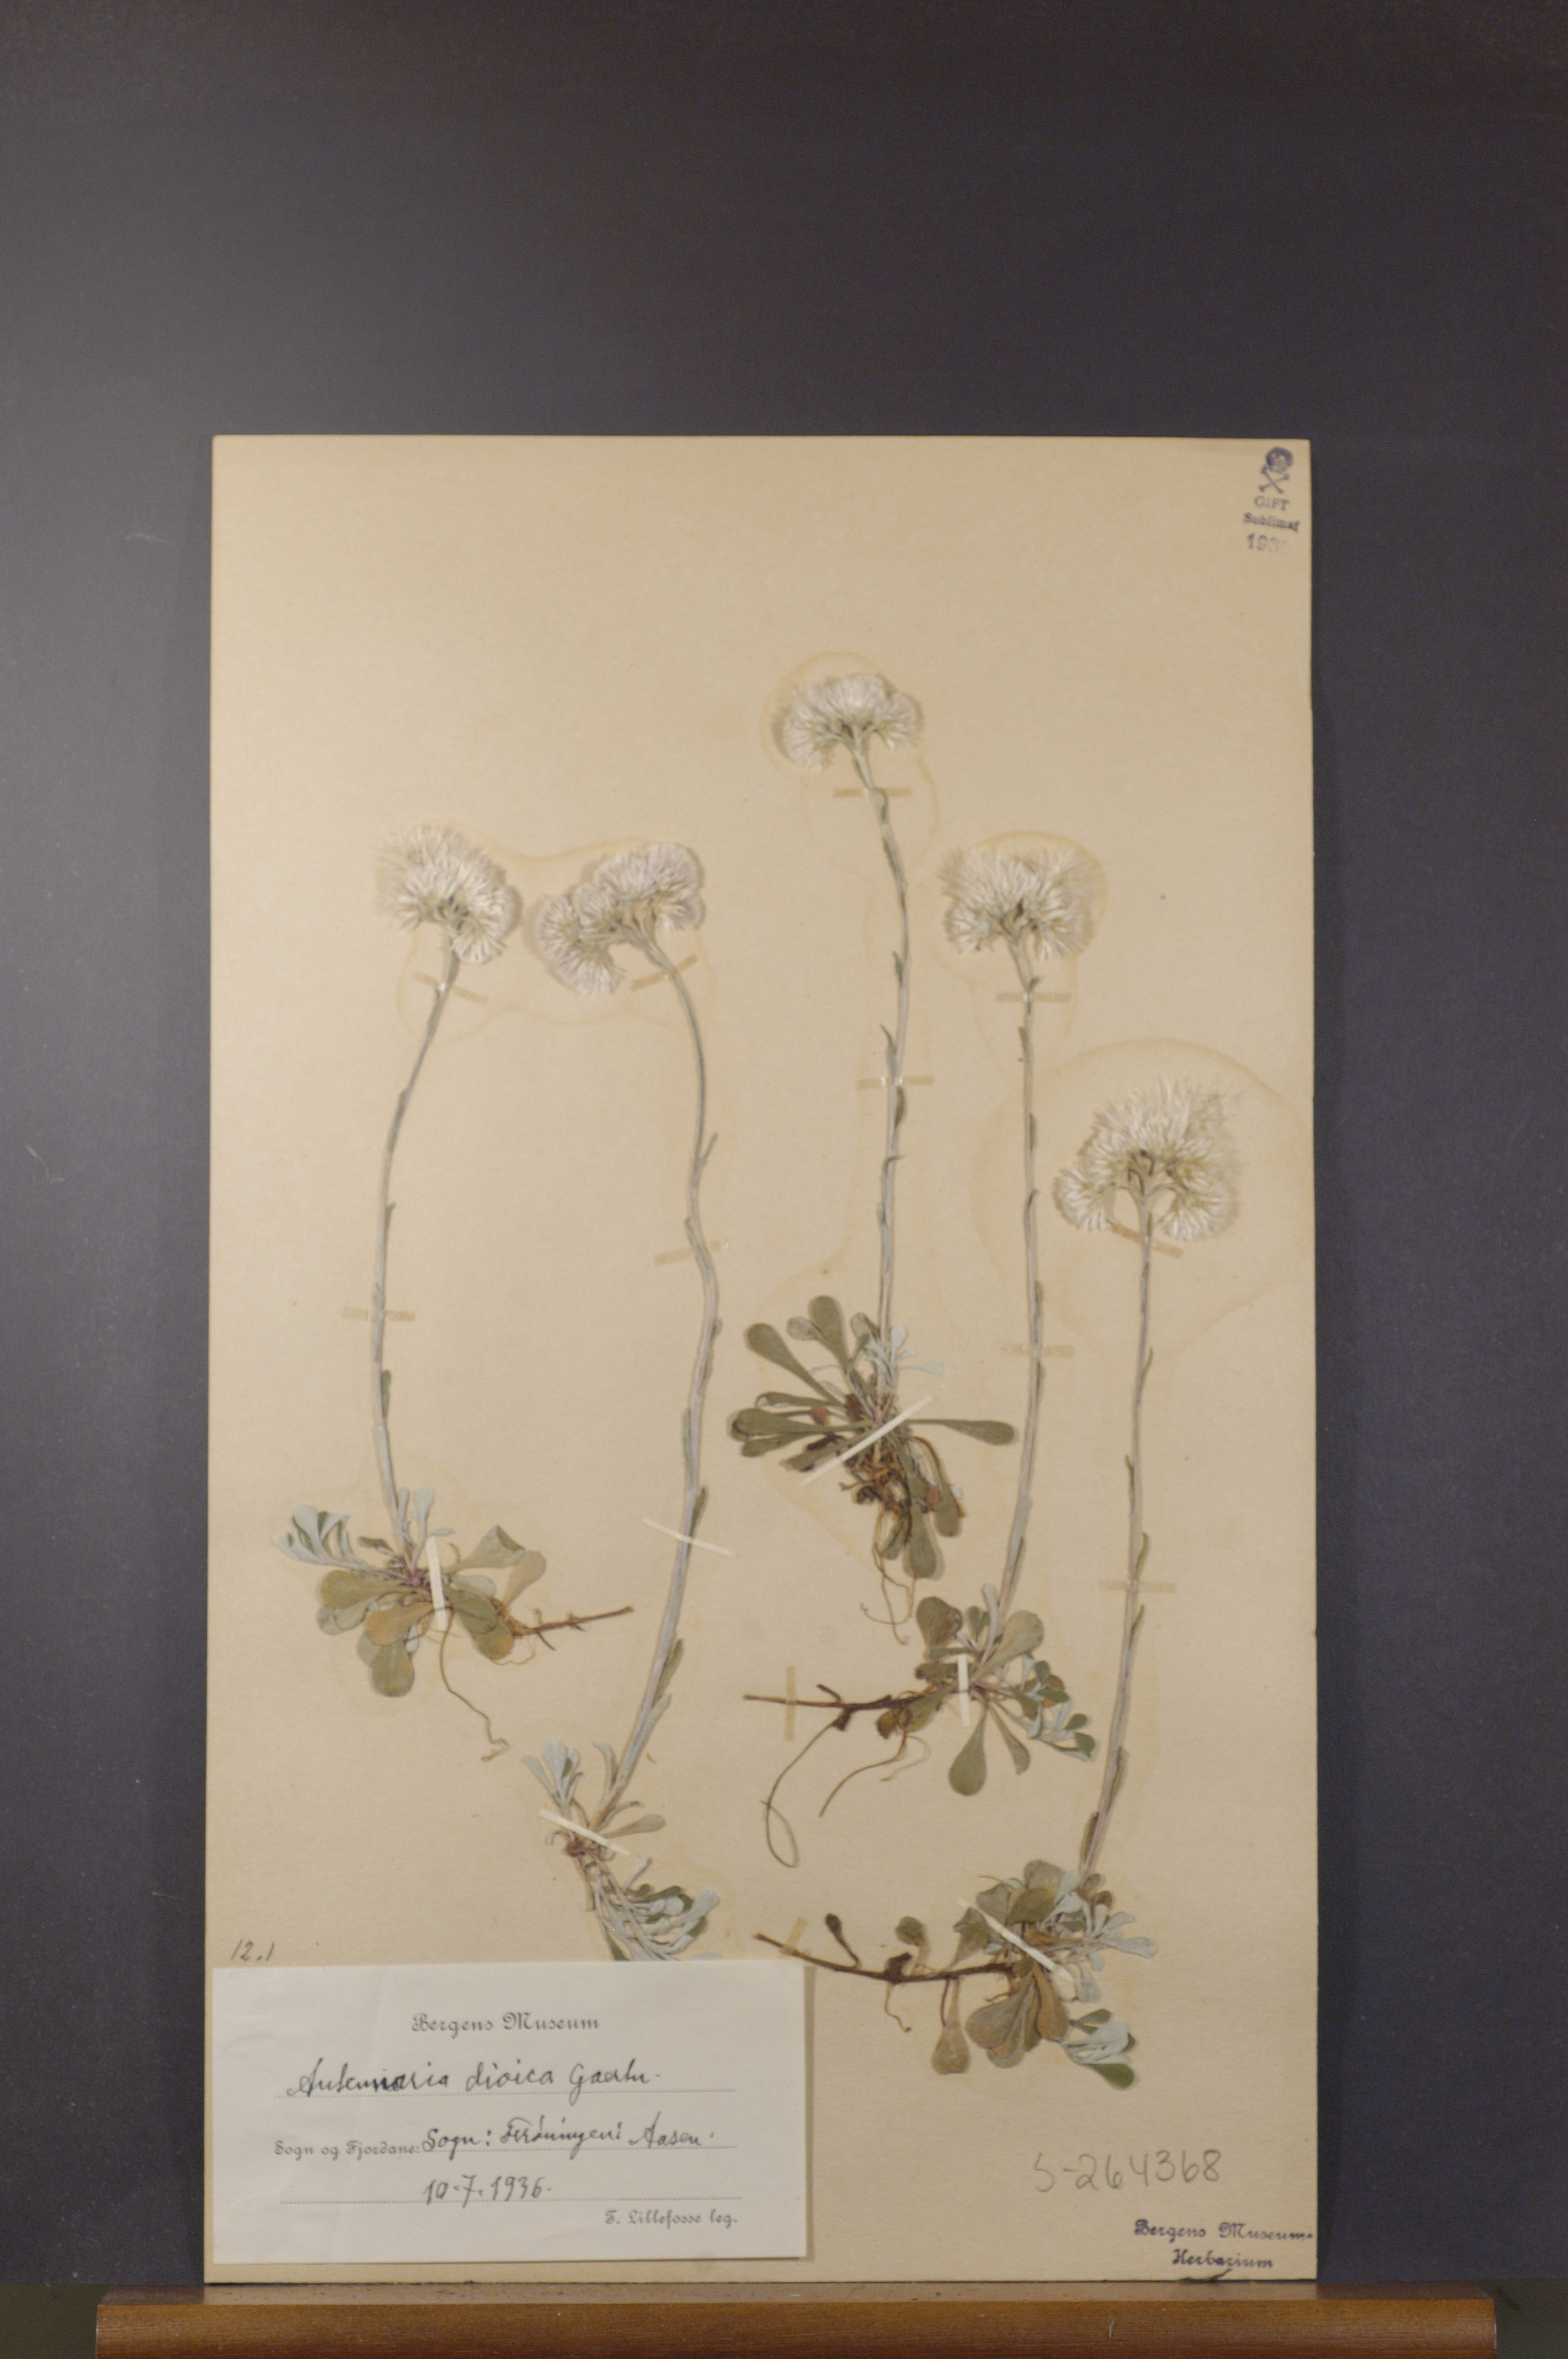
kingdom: Plantae
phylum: Tracheophyta
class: Magnoliopsida
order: Asterales
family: Asteraceae
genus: Antennaria
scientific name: Antennaria dioica
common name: Mountain everlasting
